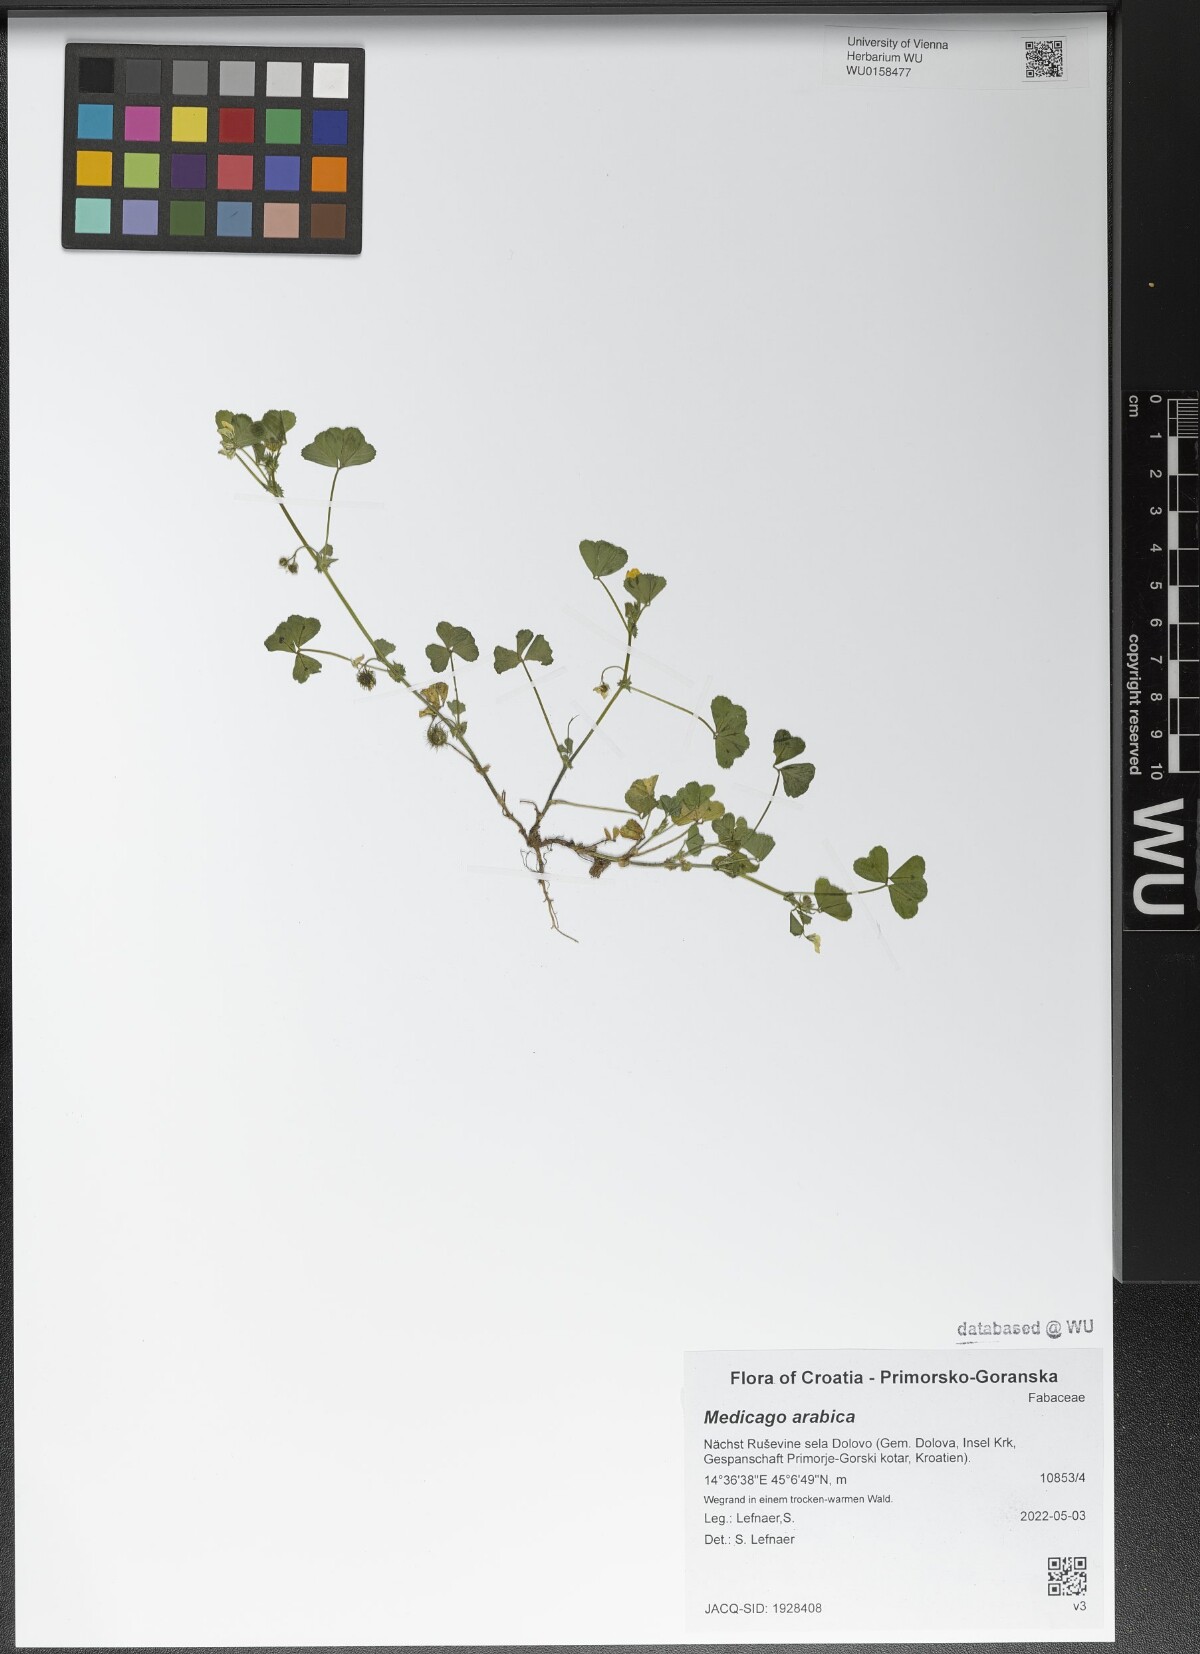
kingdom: Plantae
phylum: Tracheophyta
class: Magnoliopsida
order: Fabales
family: Fabaceae
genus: Medicago
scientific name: Medicago arabica
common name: Spotted medick
